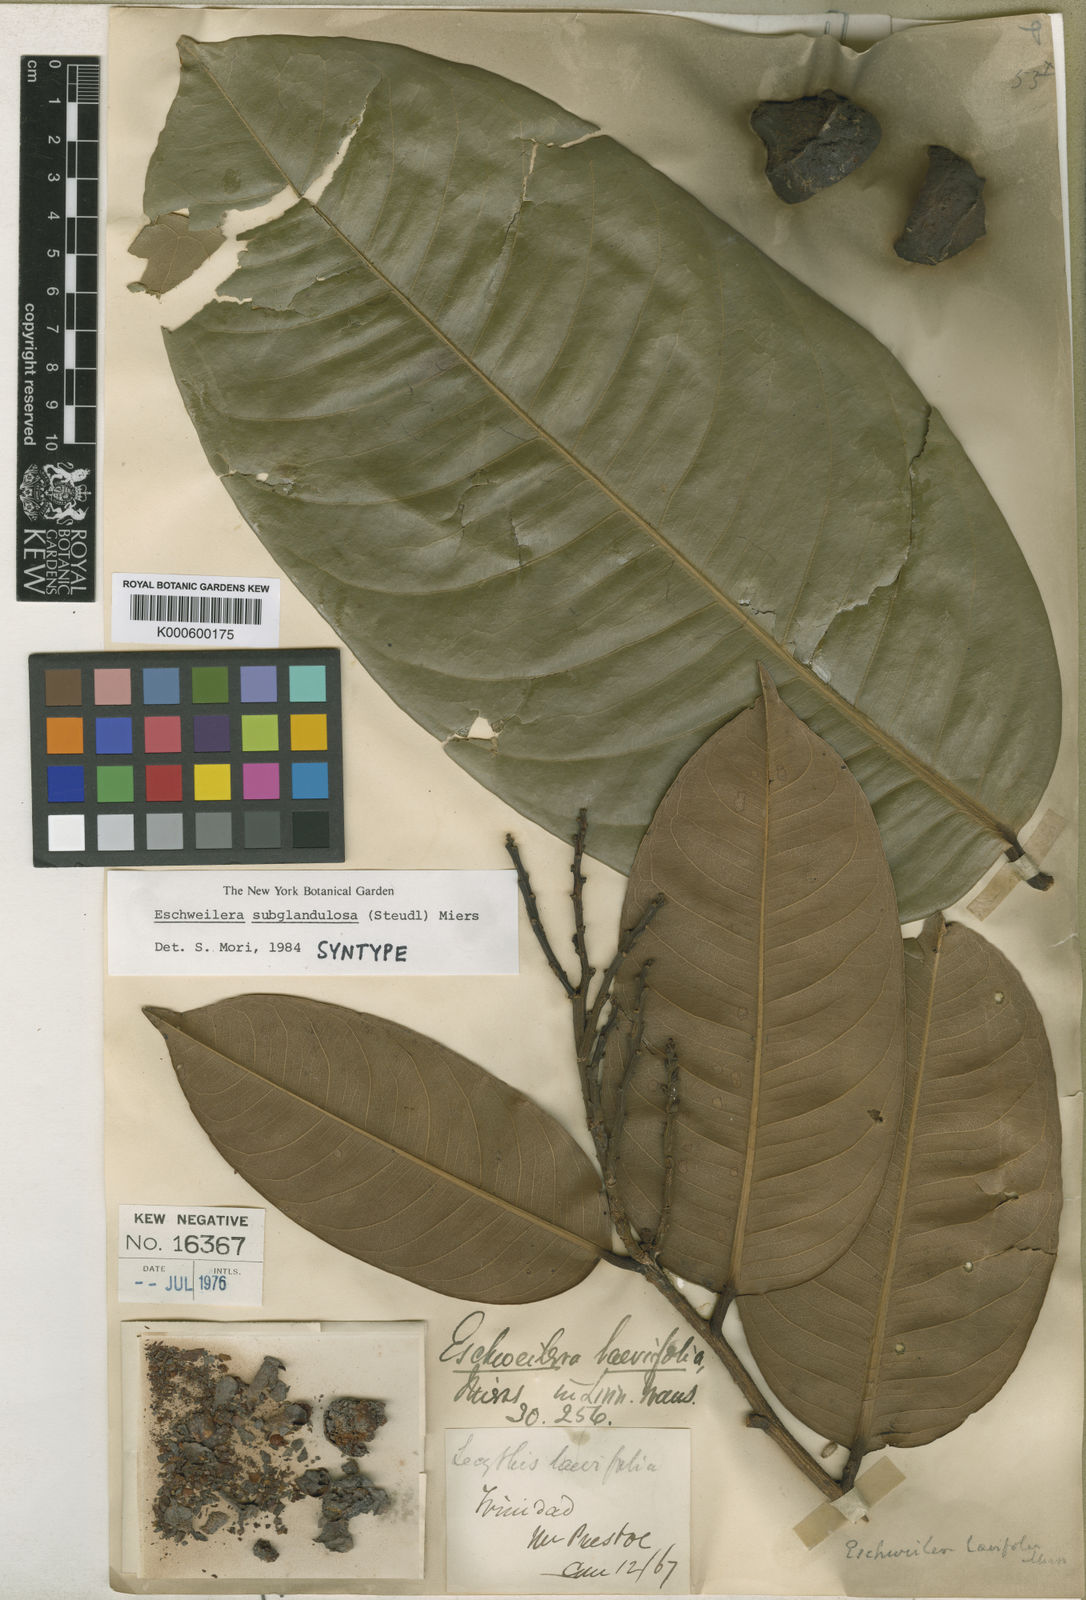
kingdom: Plantae
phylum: Tracheophyta
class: Magnoliopsida
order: Ericales
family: Lecythidaceae
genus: Eschweilera
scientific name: Eschweilera subglandulosa
